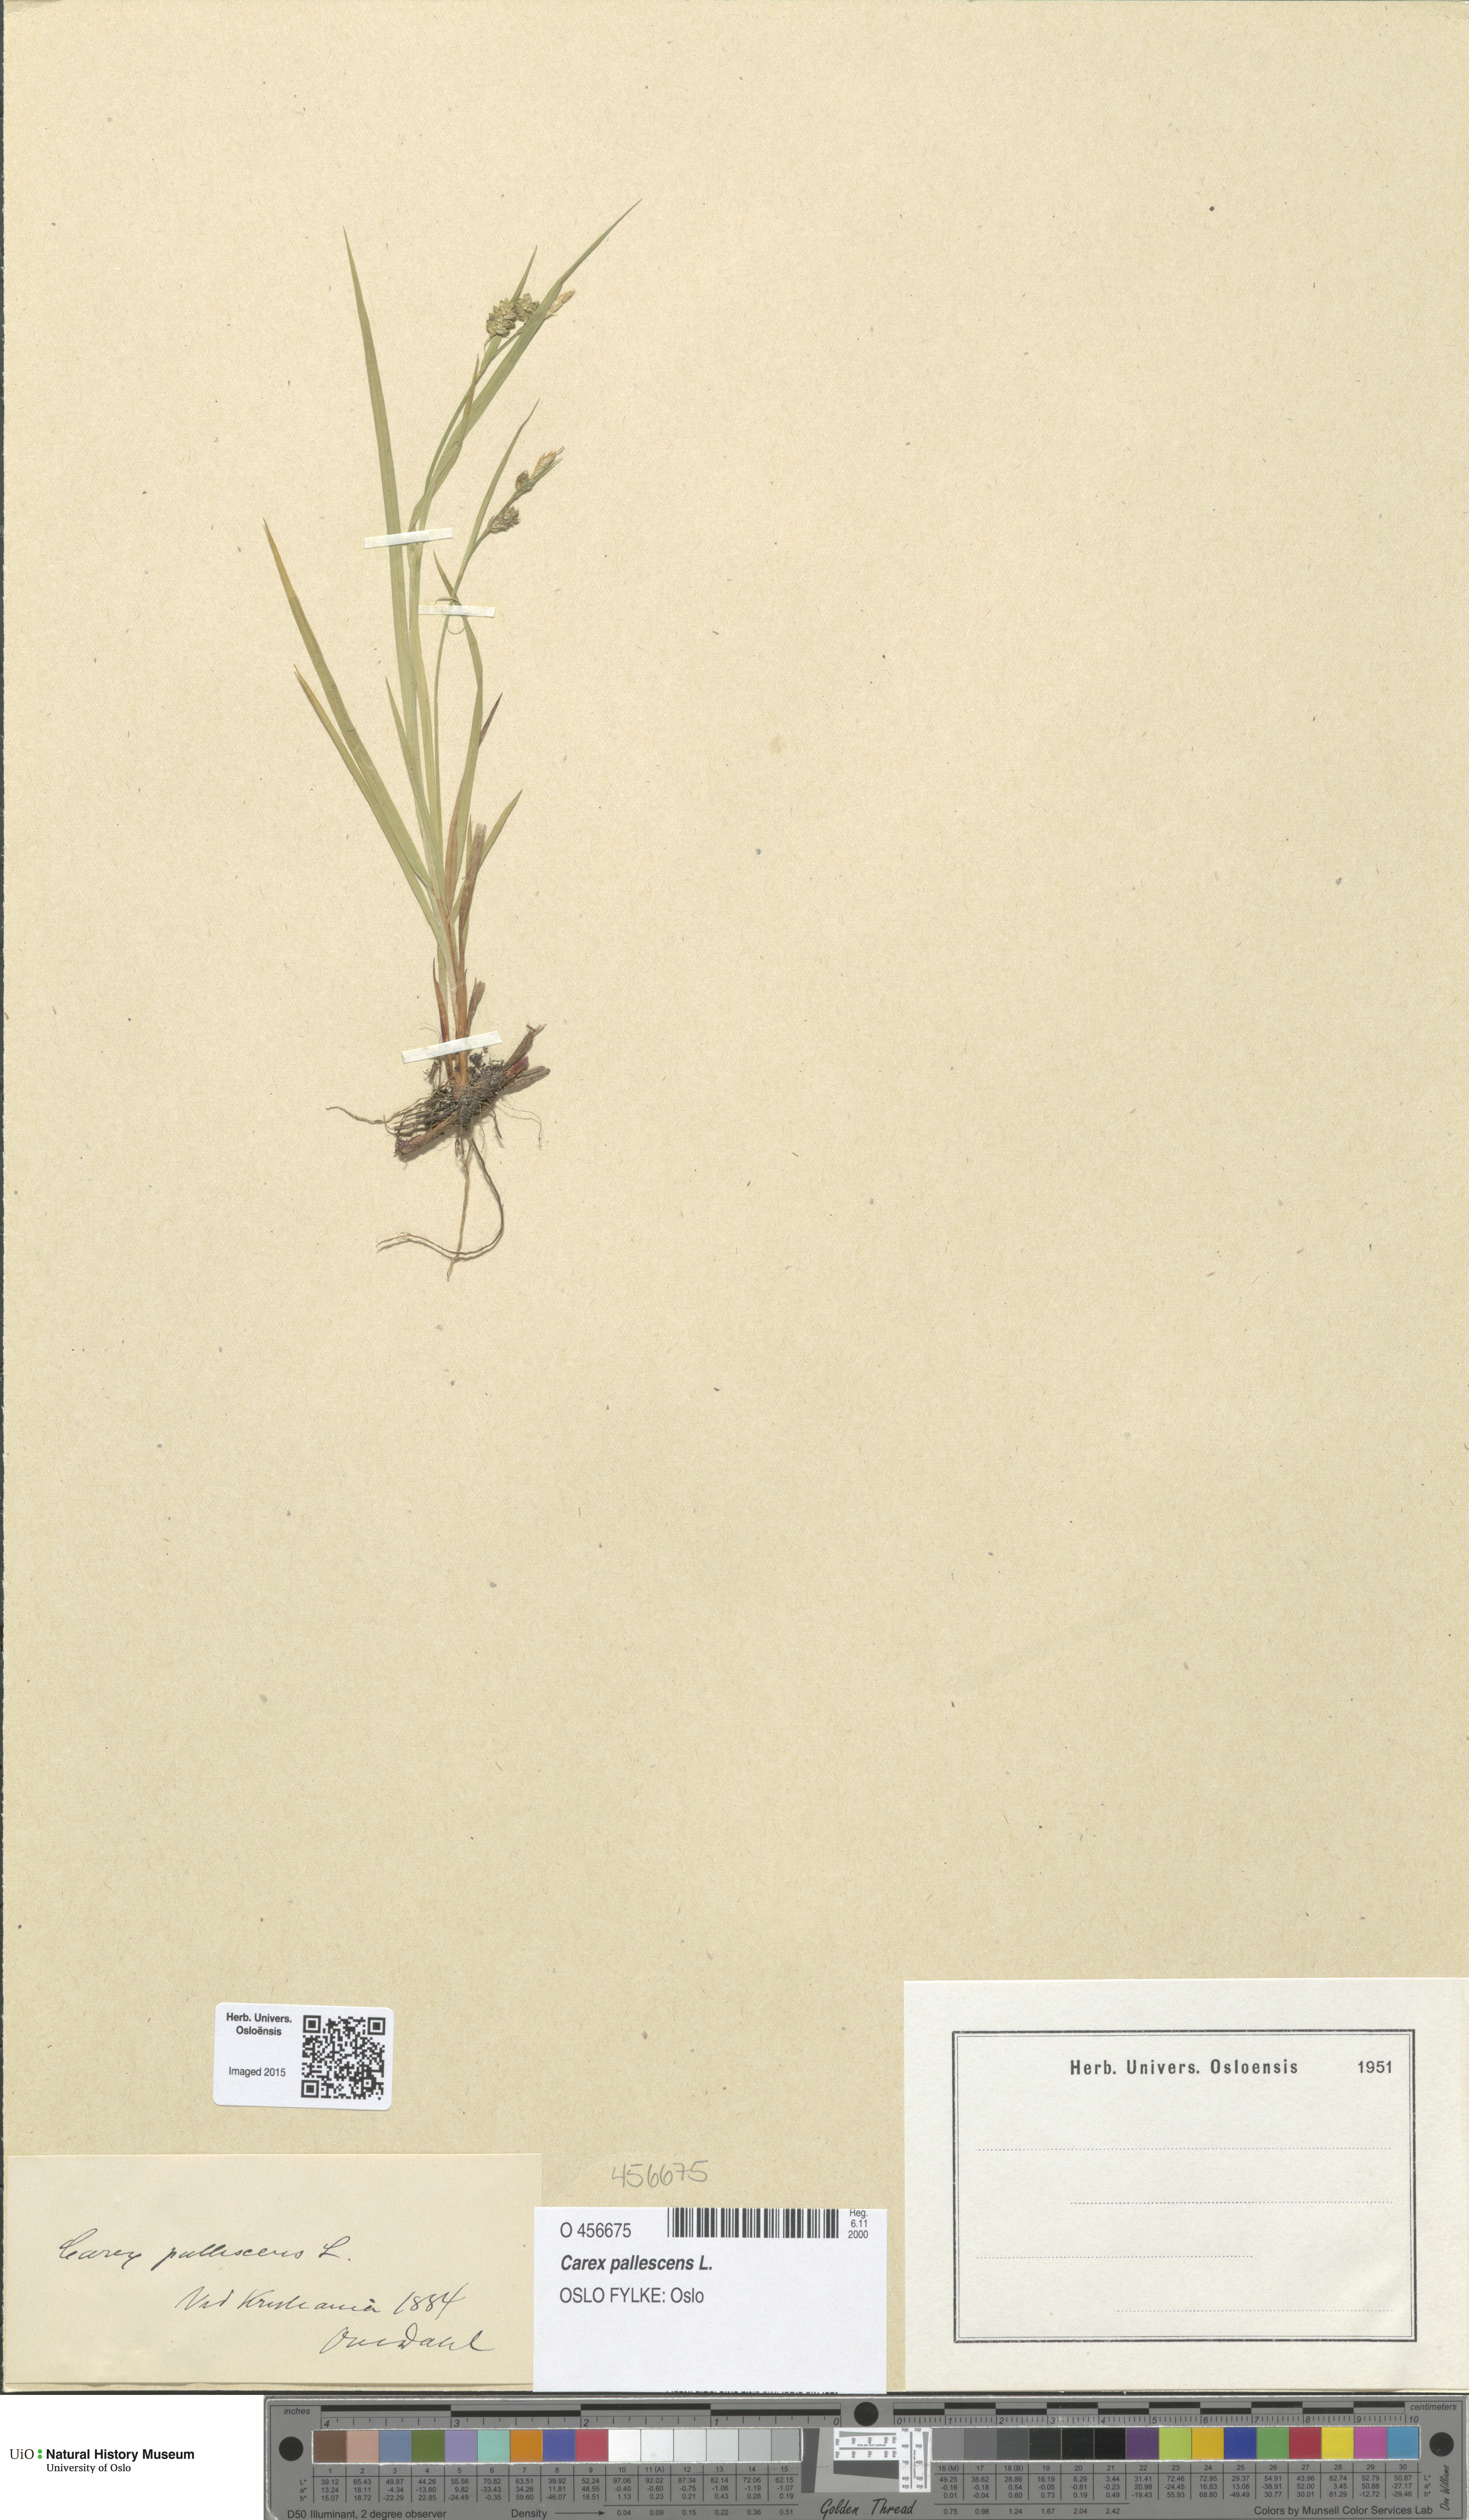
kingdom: Plantae
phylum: Tracheophyta
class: Liliopsida
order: Poales
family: Cyperaceae
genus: Carex
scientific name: Carex pallescens
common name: Pale sedge
